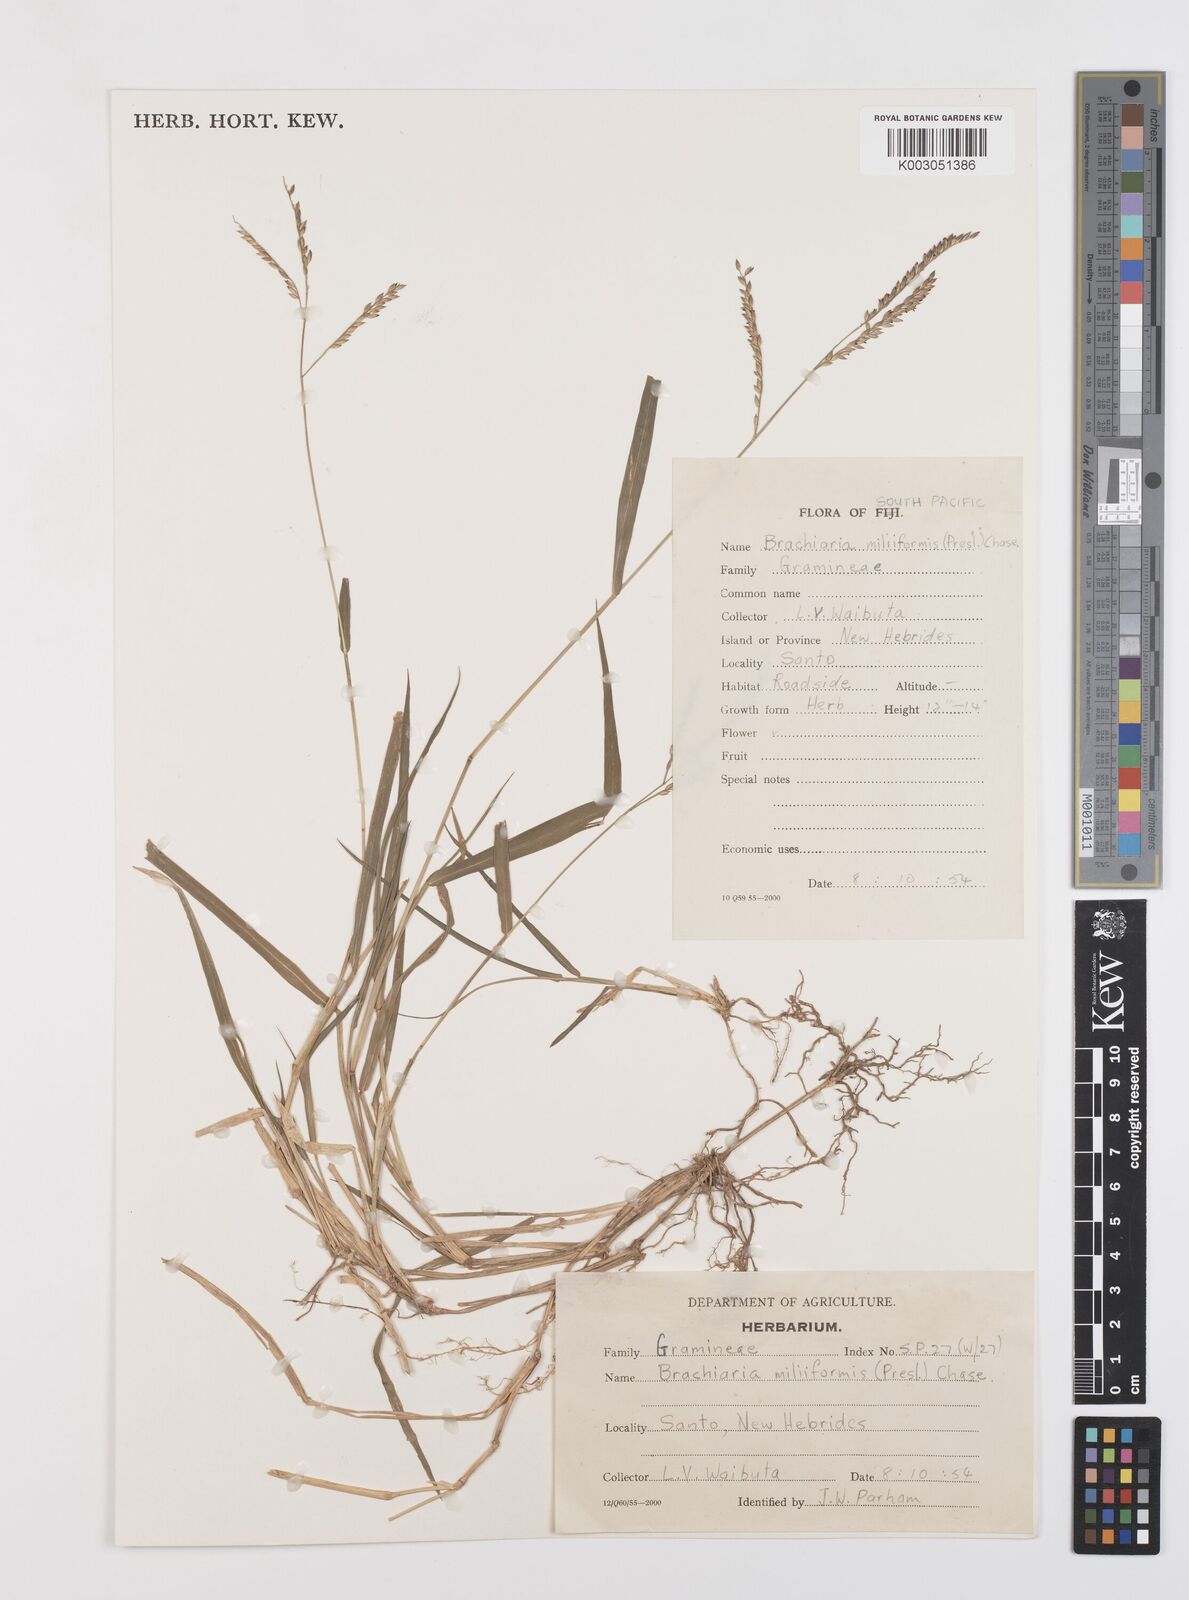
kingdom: Plantae
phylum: Tracheophyta
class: Liliopsida
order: Poales
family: Poaceae
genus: Urochloa
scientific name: Urochloa subquadripara
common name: Armgrass millet
